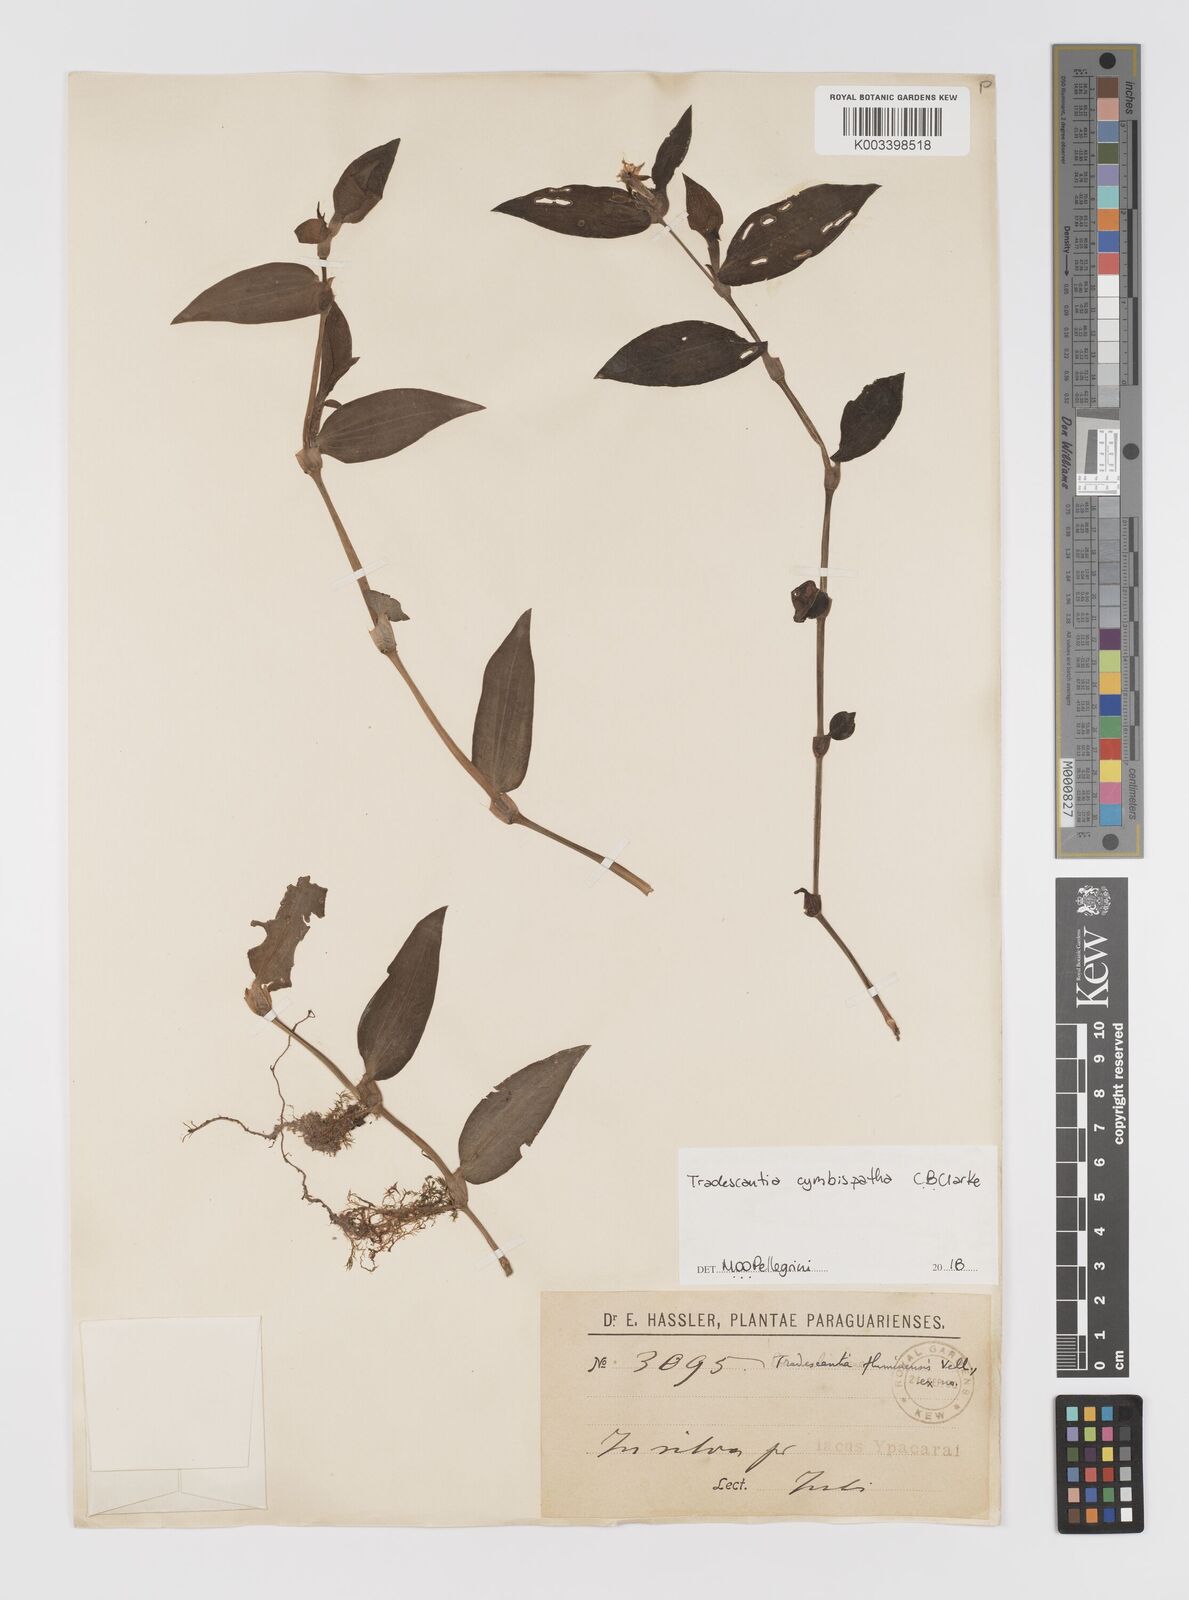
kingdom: Plantae
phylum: Tracheophyta
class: Liliopsida
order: Commelinales
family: Commelinaceae
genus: Tradescantia
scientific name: Tradescantia cymbispatha
